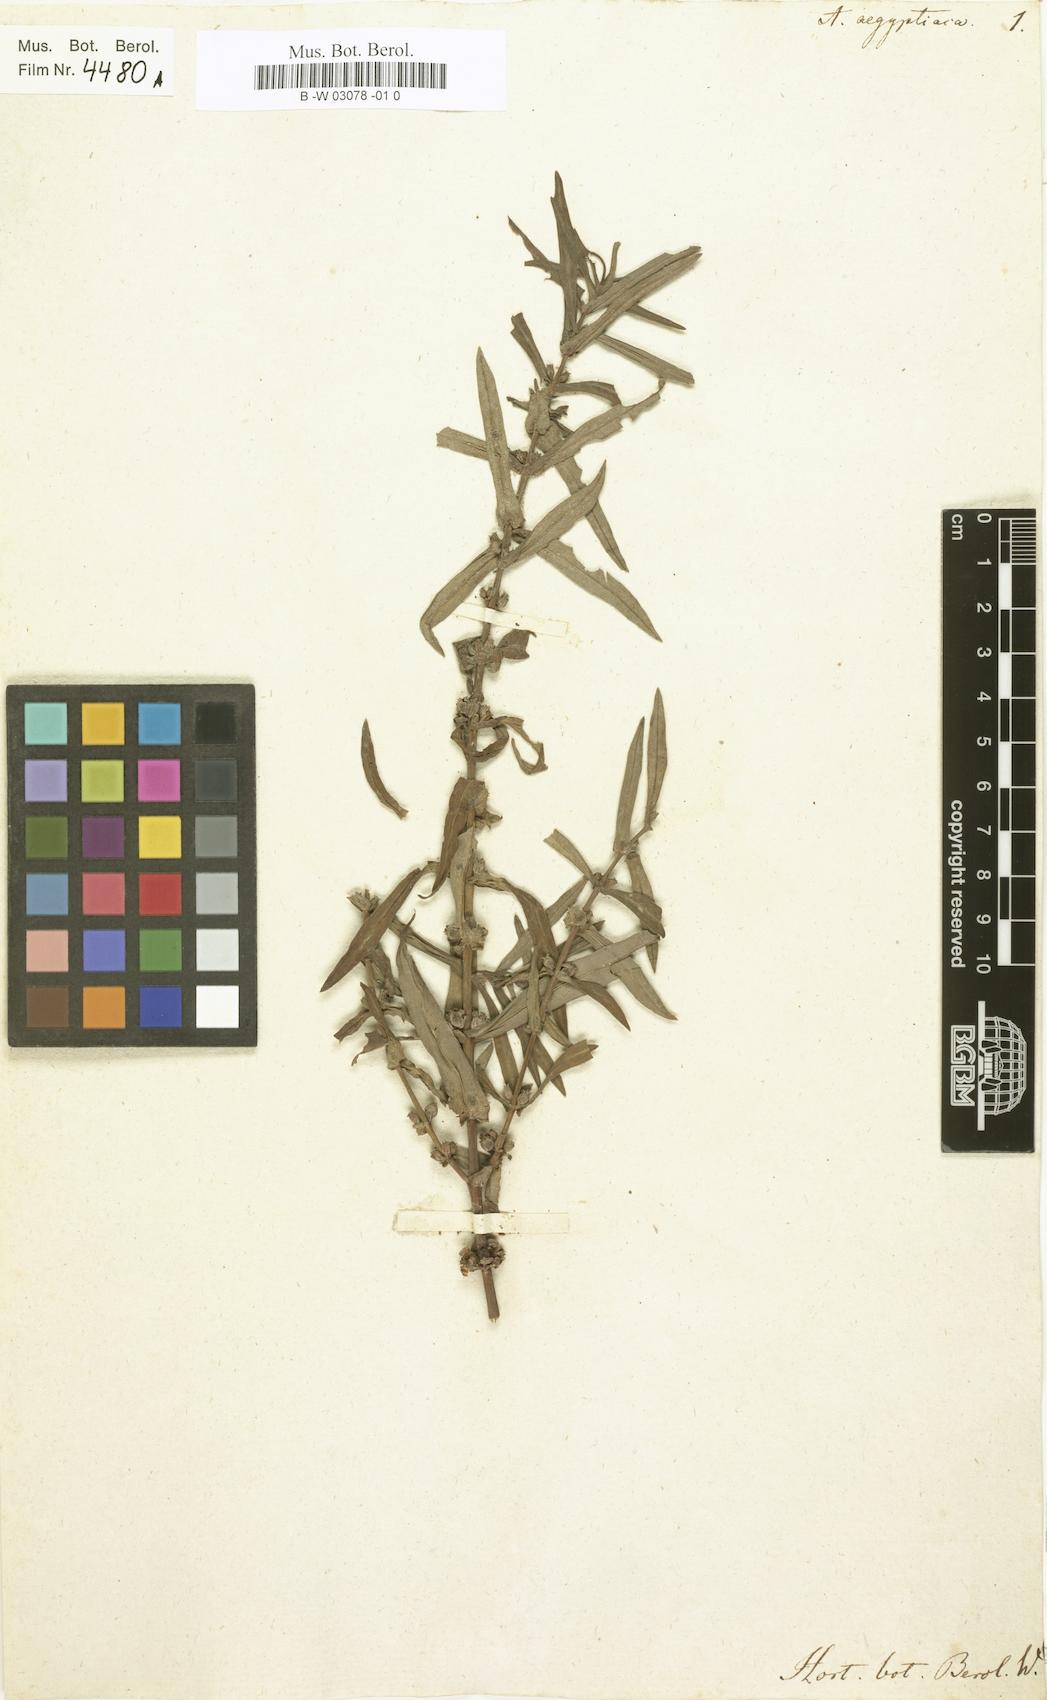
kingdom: Plantae
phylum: Tracheophyta
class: Magnoliopsida
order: Myrtales
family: Lythraceae
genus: Ammannia
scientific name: Ammannia baccifera
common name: Blistering ammania
